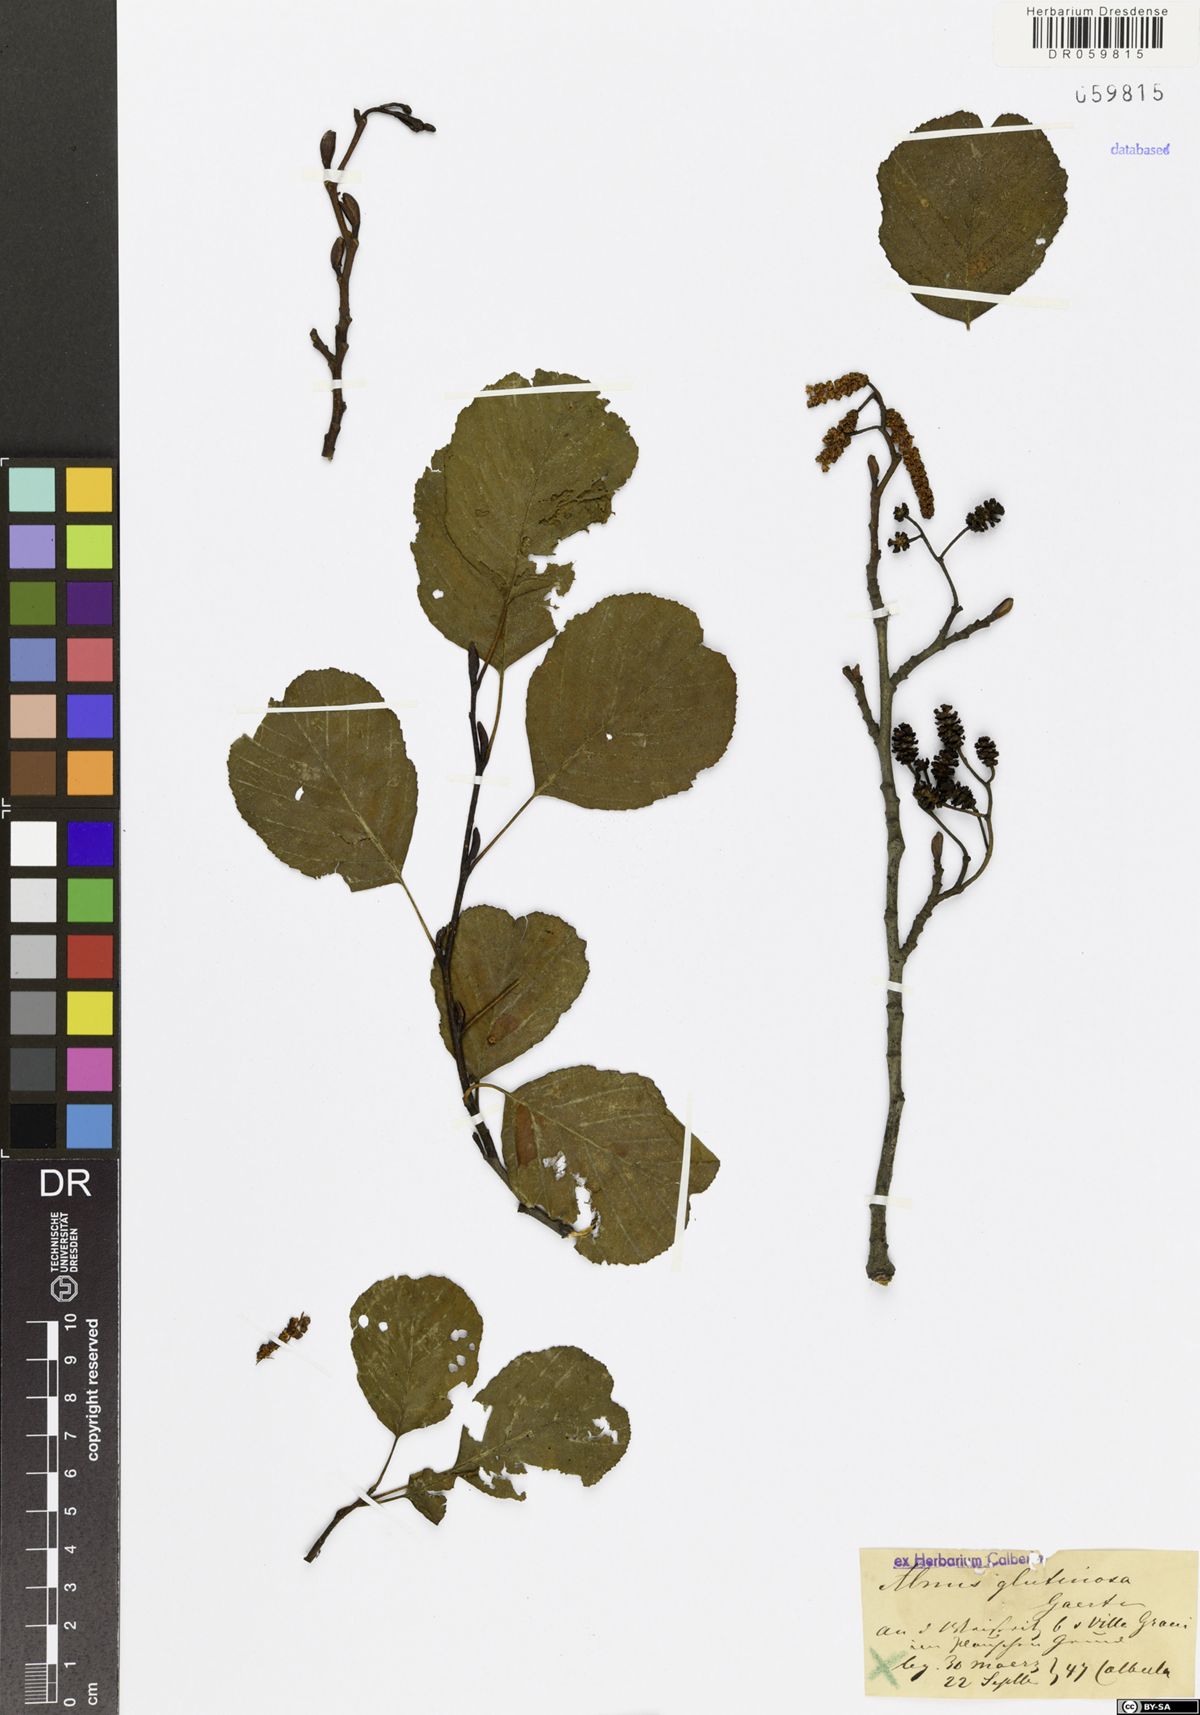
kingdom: Plantae
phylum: Tracheophyta
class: Magnoliopsida
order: Fagales
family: Betulaceae
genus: Alnus
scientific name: Alnus glutinosa
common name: Black alder
